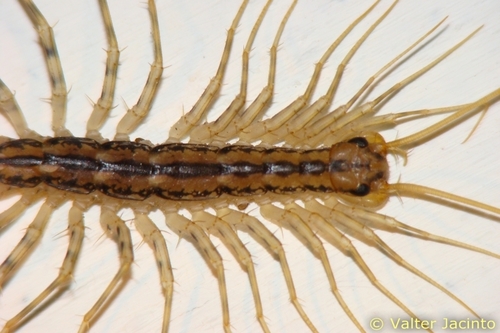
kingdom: Animalia
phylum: Arthropoda
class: Chilopoda
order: Scutigeromorpha
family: Scutigeridae
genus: Scutigera
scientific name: Scutigera coleoptrata
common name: House centipede
